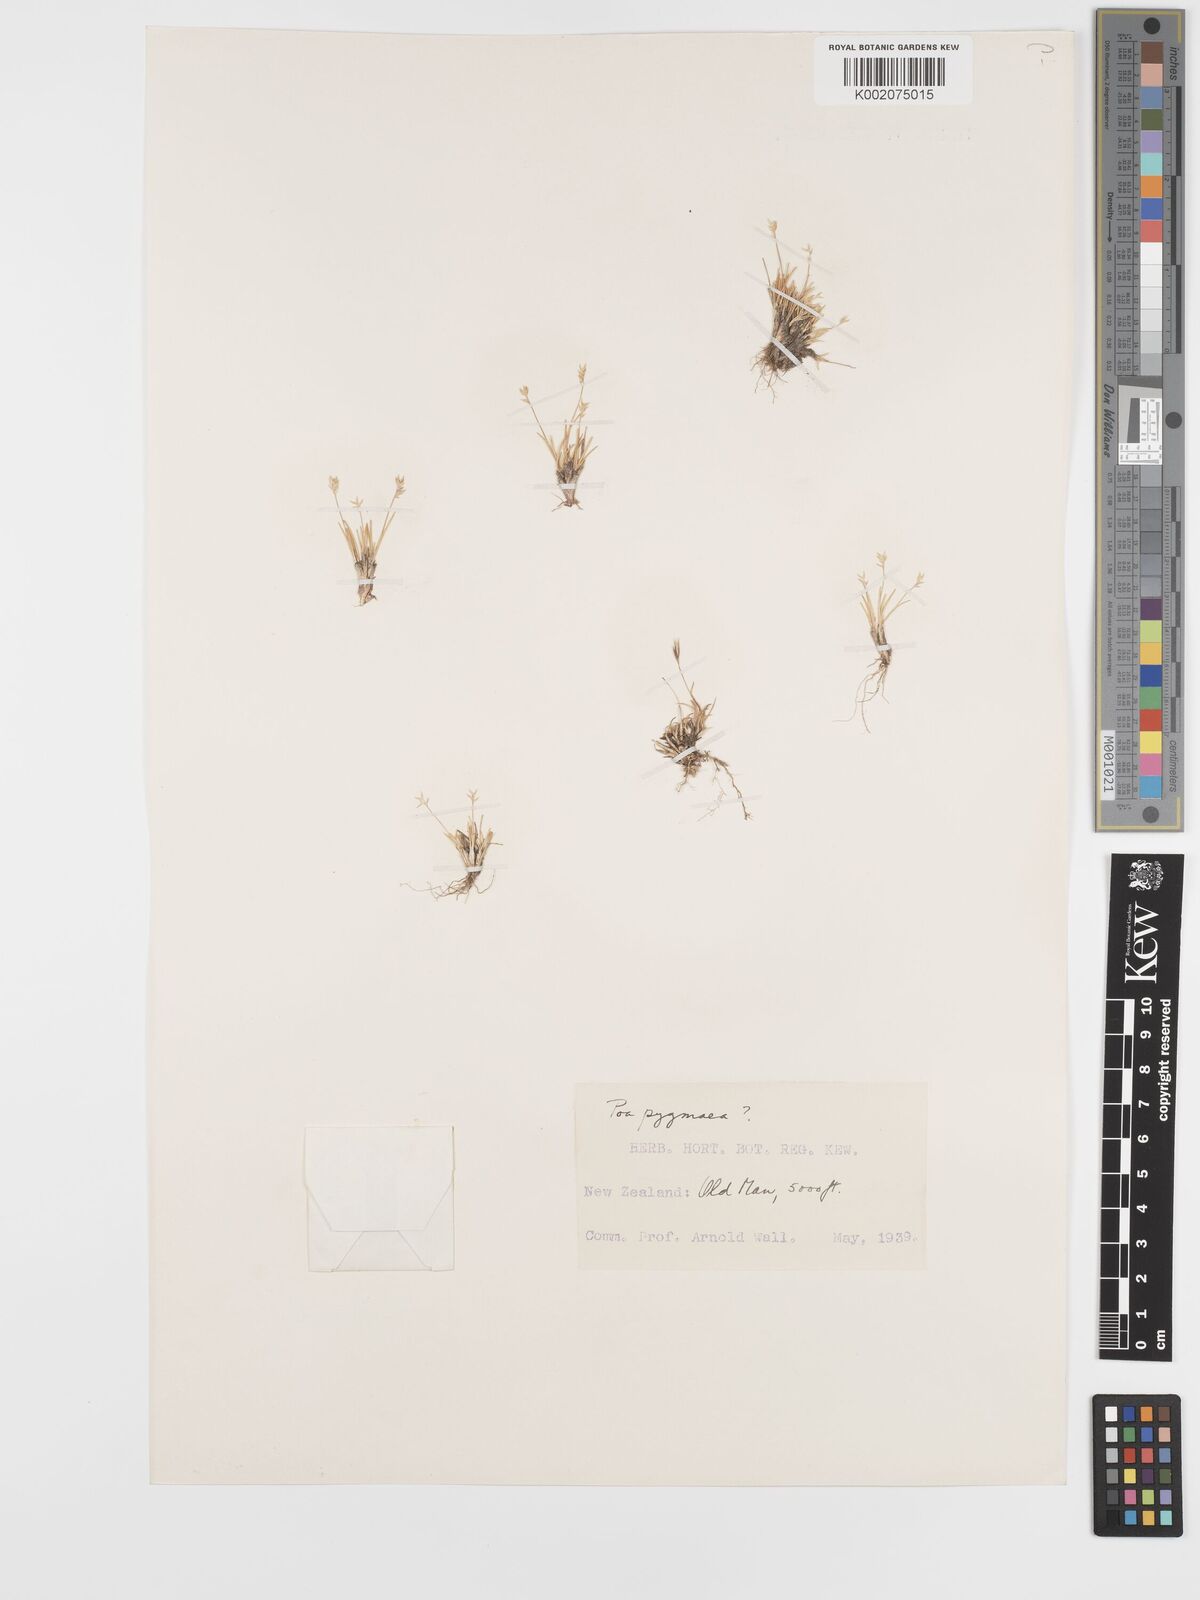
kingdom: Plantae
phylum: Tracheophyta
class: Liliopsida
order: Poales
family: Poaceae
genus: Poa
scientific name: Poa pygmaea
